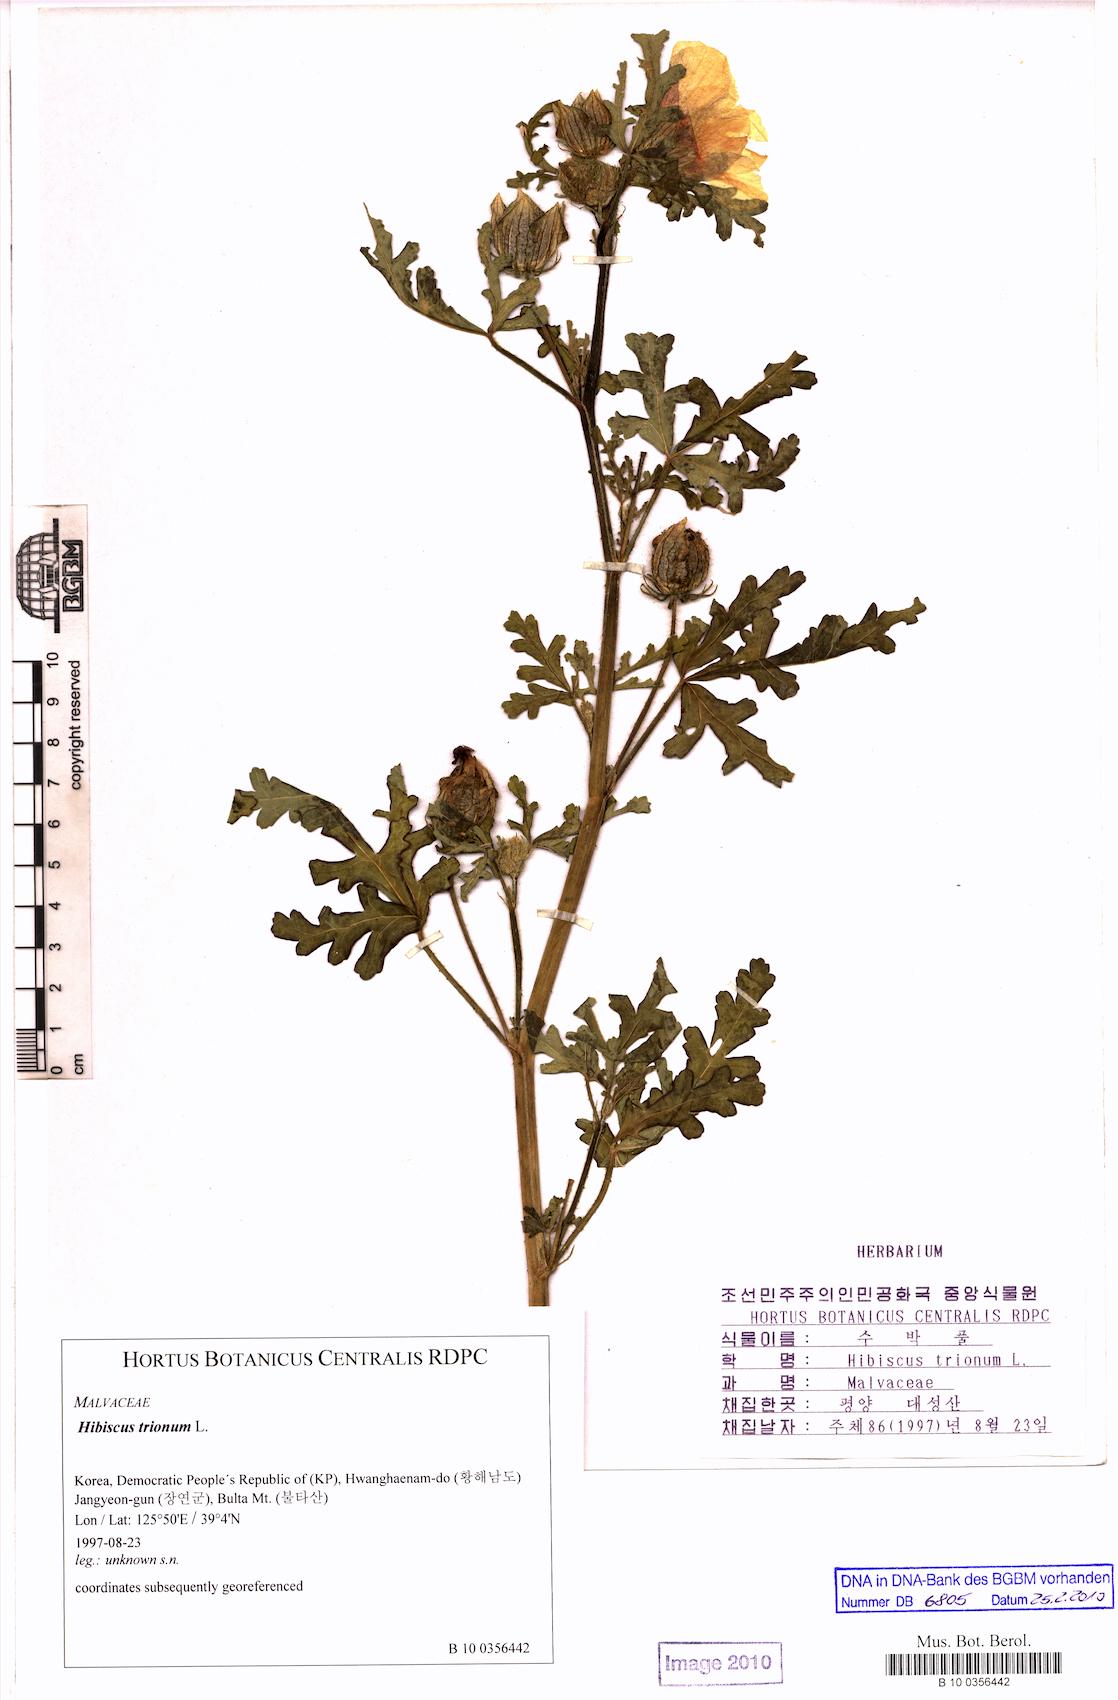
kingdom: Plantae
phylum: Tracheophyta
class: Magnoliopsida
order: Malvales
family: Malvaceae
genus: Hibiscus
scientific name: Hibiscus trionum
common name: Bladder ketmia
